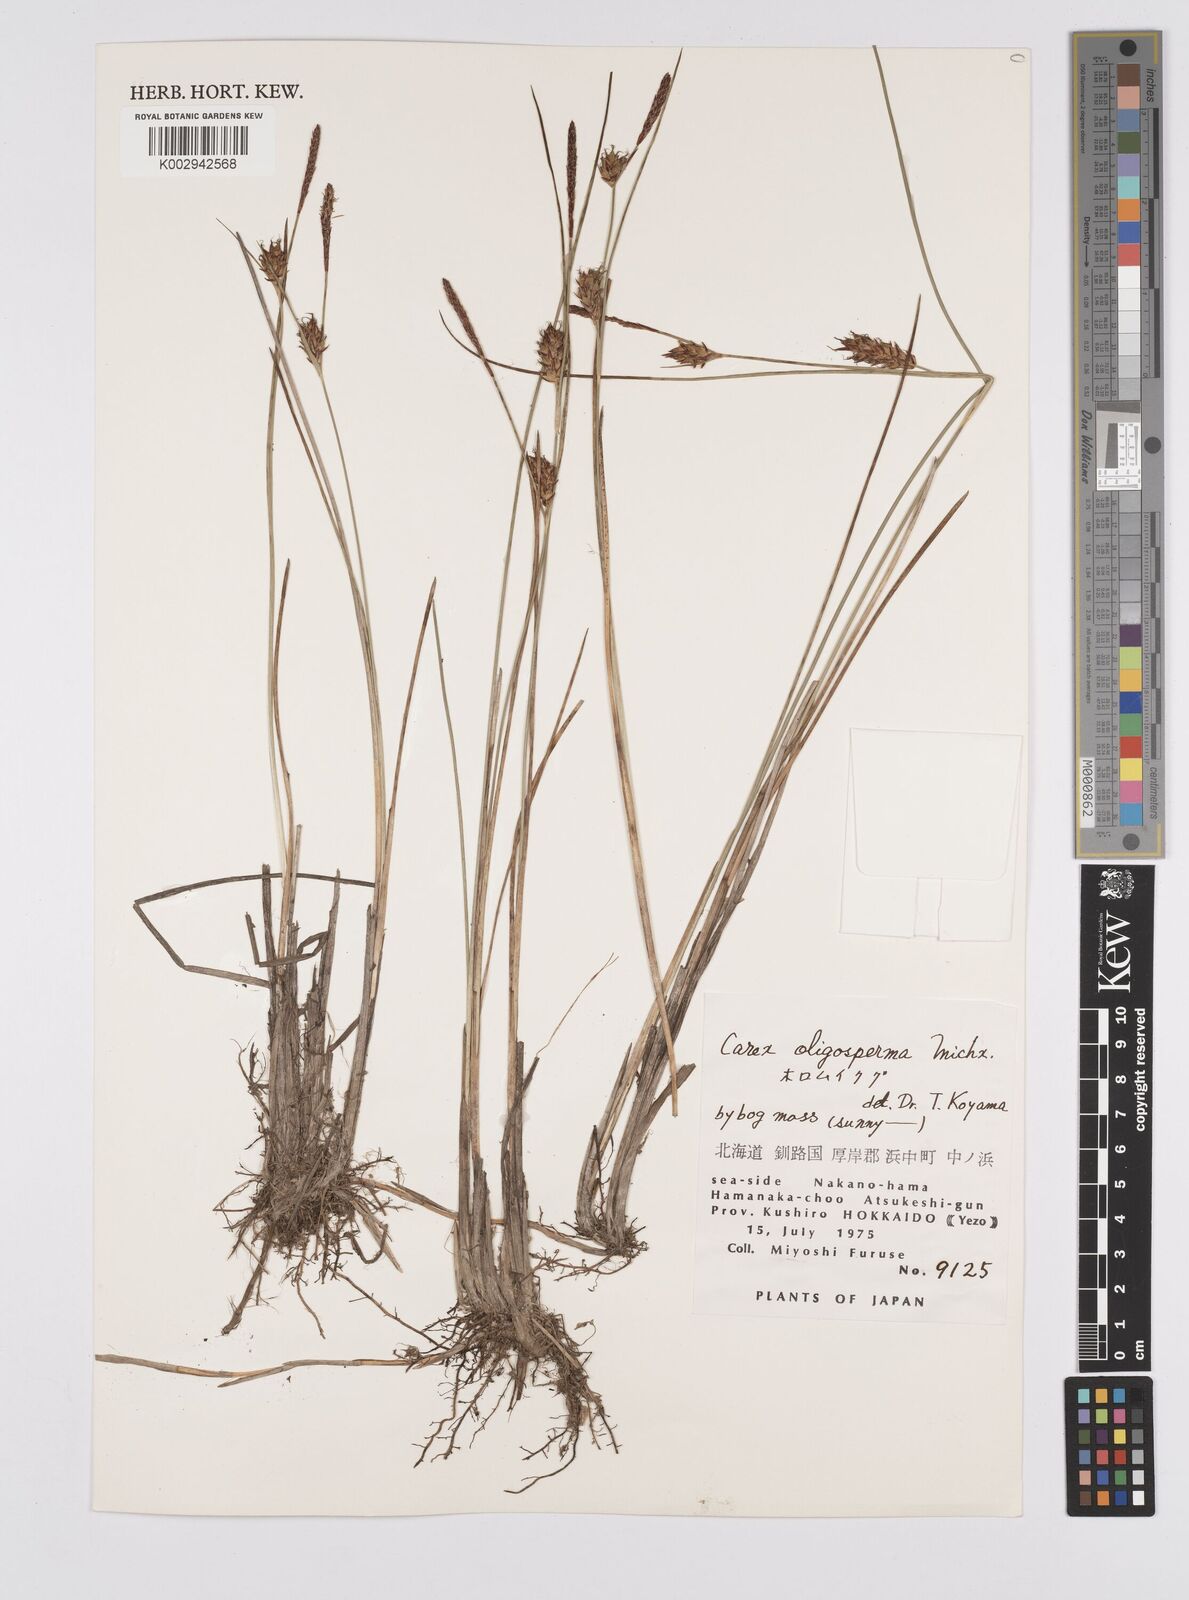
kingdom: Plantae
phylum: Tracheophyta
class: Liliopsida
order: Poales
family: Cyperaceae
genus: Carex
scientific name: Carex oligosperma
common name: Few-seed sedge
